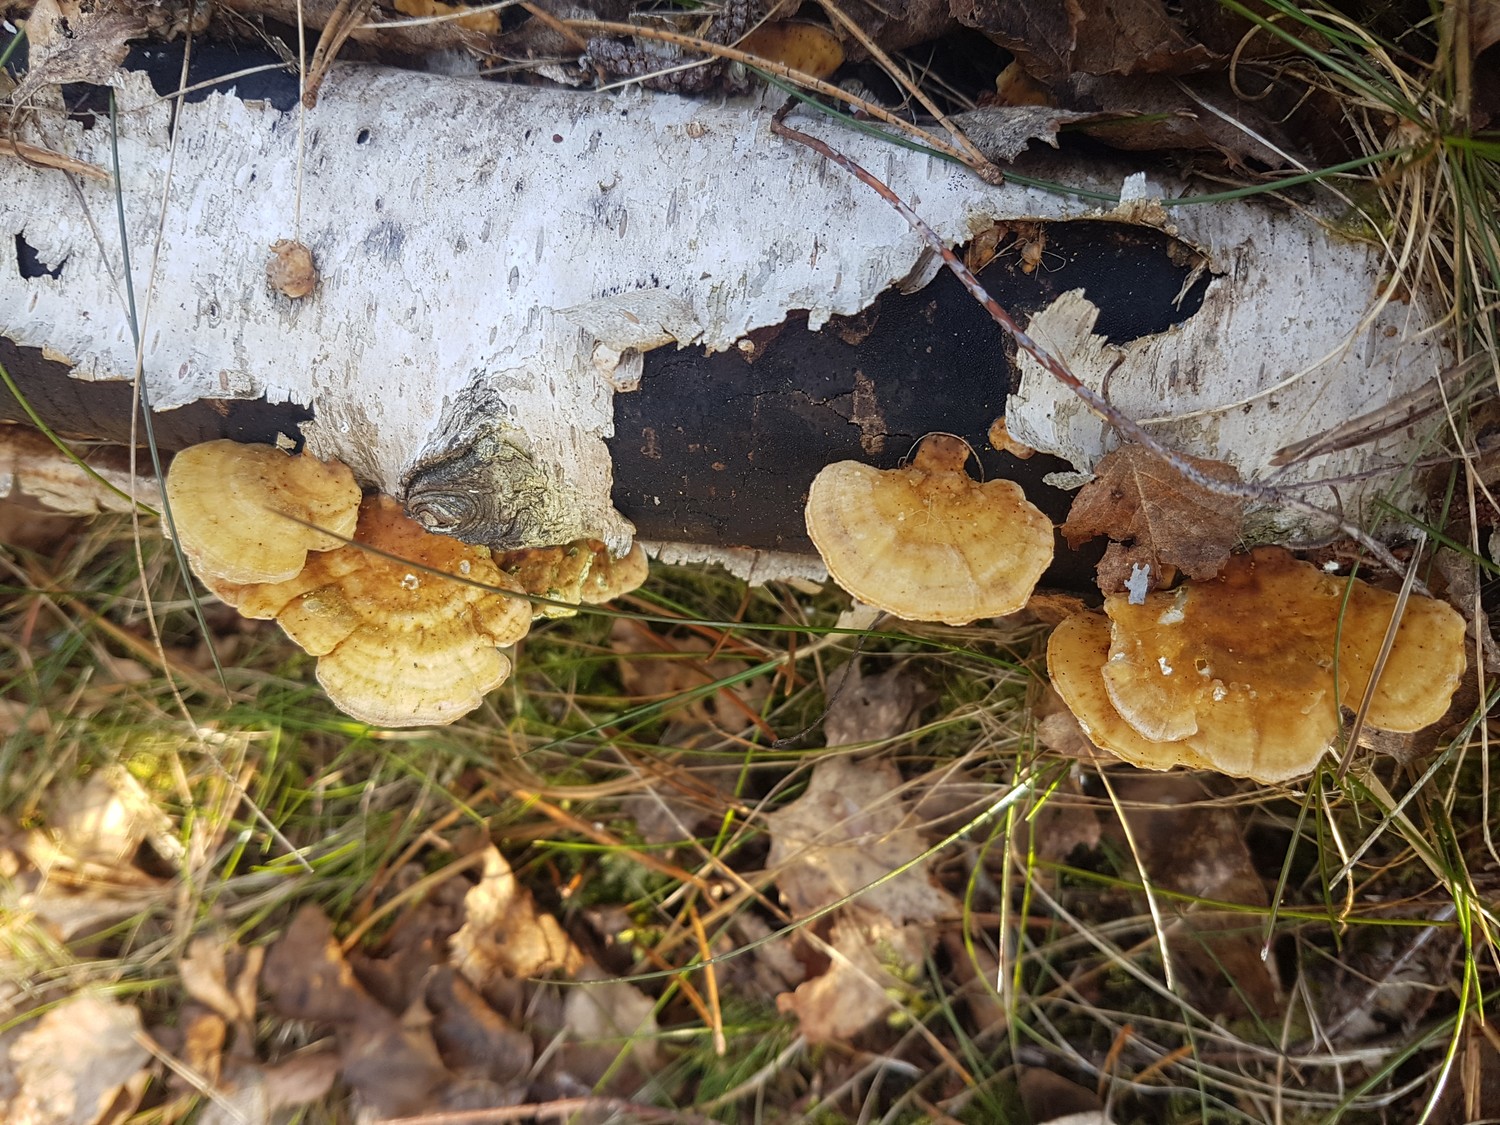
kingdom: Fungi
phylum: Basidiomycota
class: Agaricomycetes
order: Polyporales
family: Polyporaceae
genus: Trametes
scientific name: Trametes ochracea
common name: bæltet læderporesvamp
